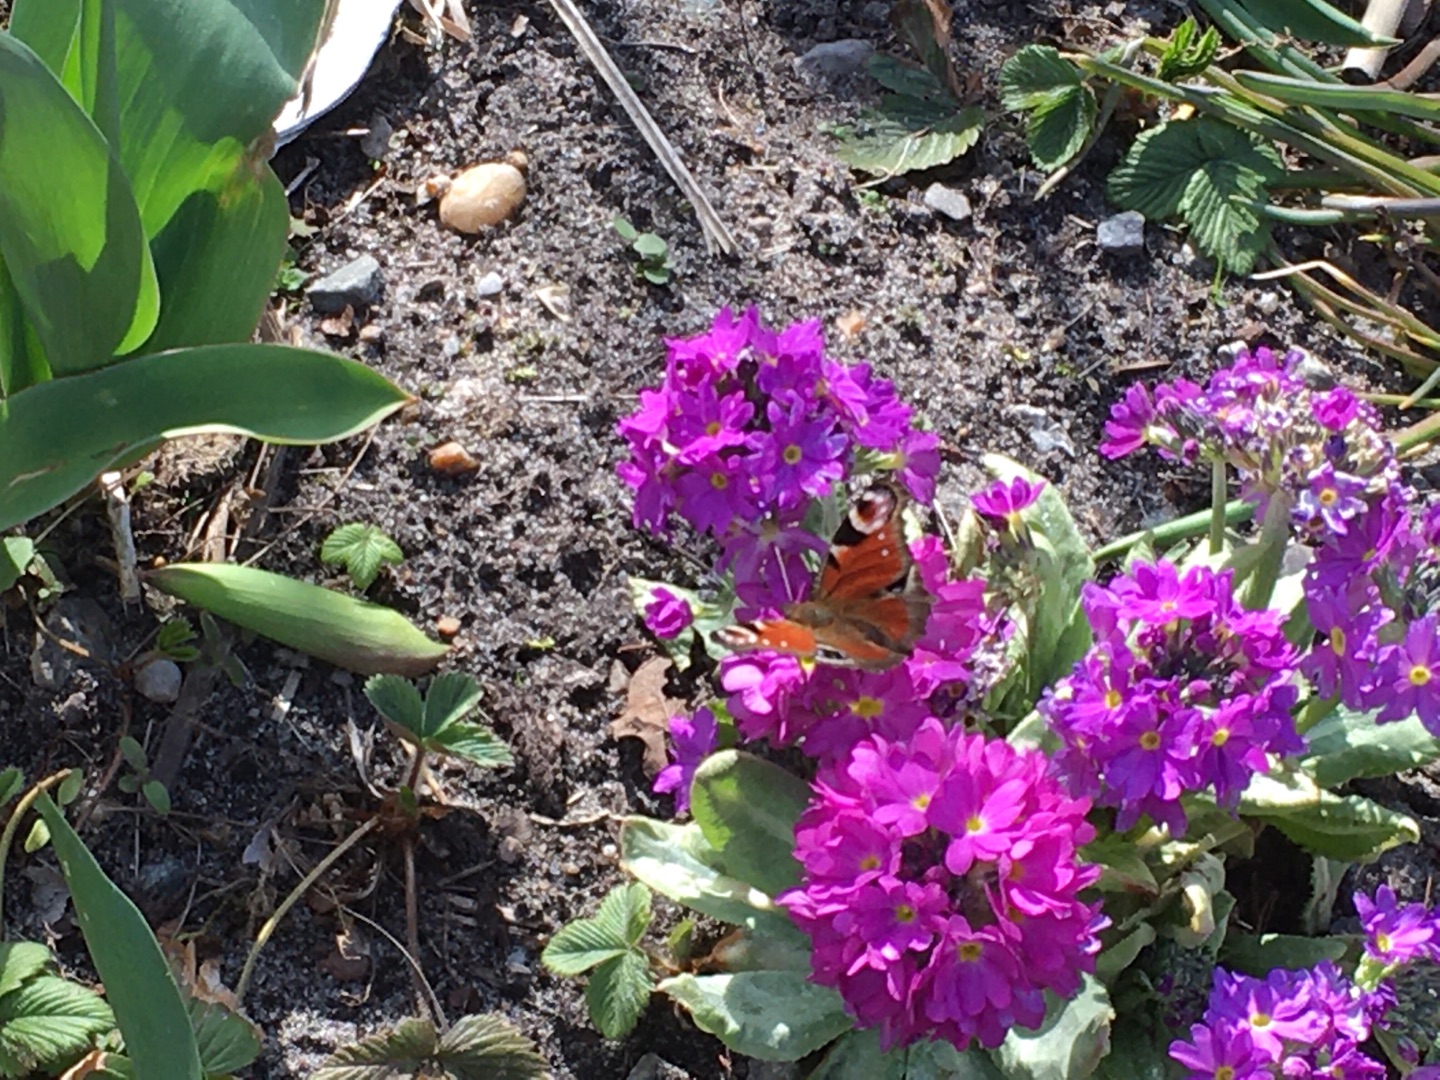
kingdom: Animalia
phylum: Arthropoda
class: Insecta
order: Lepidoptera
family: Nymphalidae
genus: Aglais
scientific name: Aglais io
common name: Dagpåfugleøje
